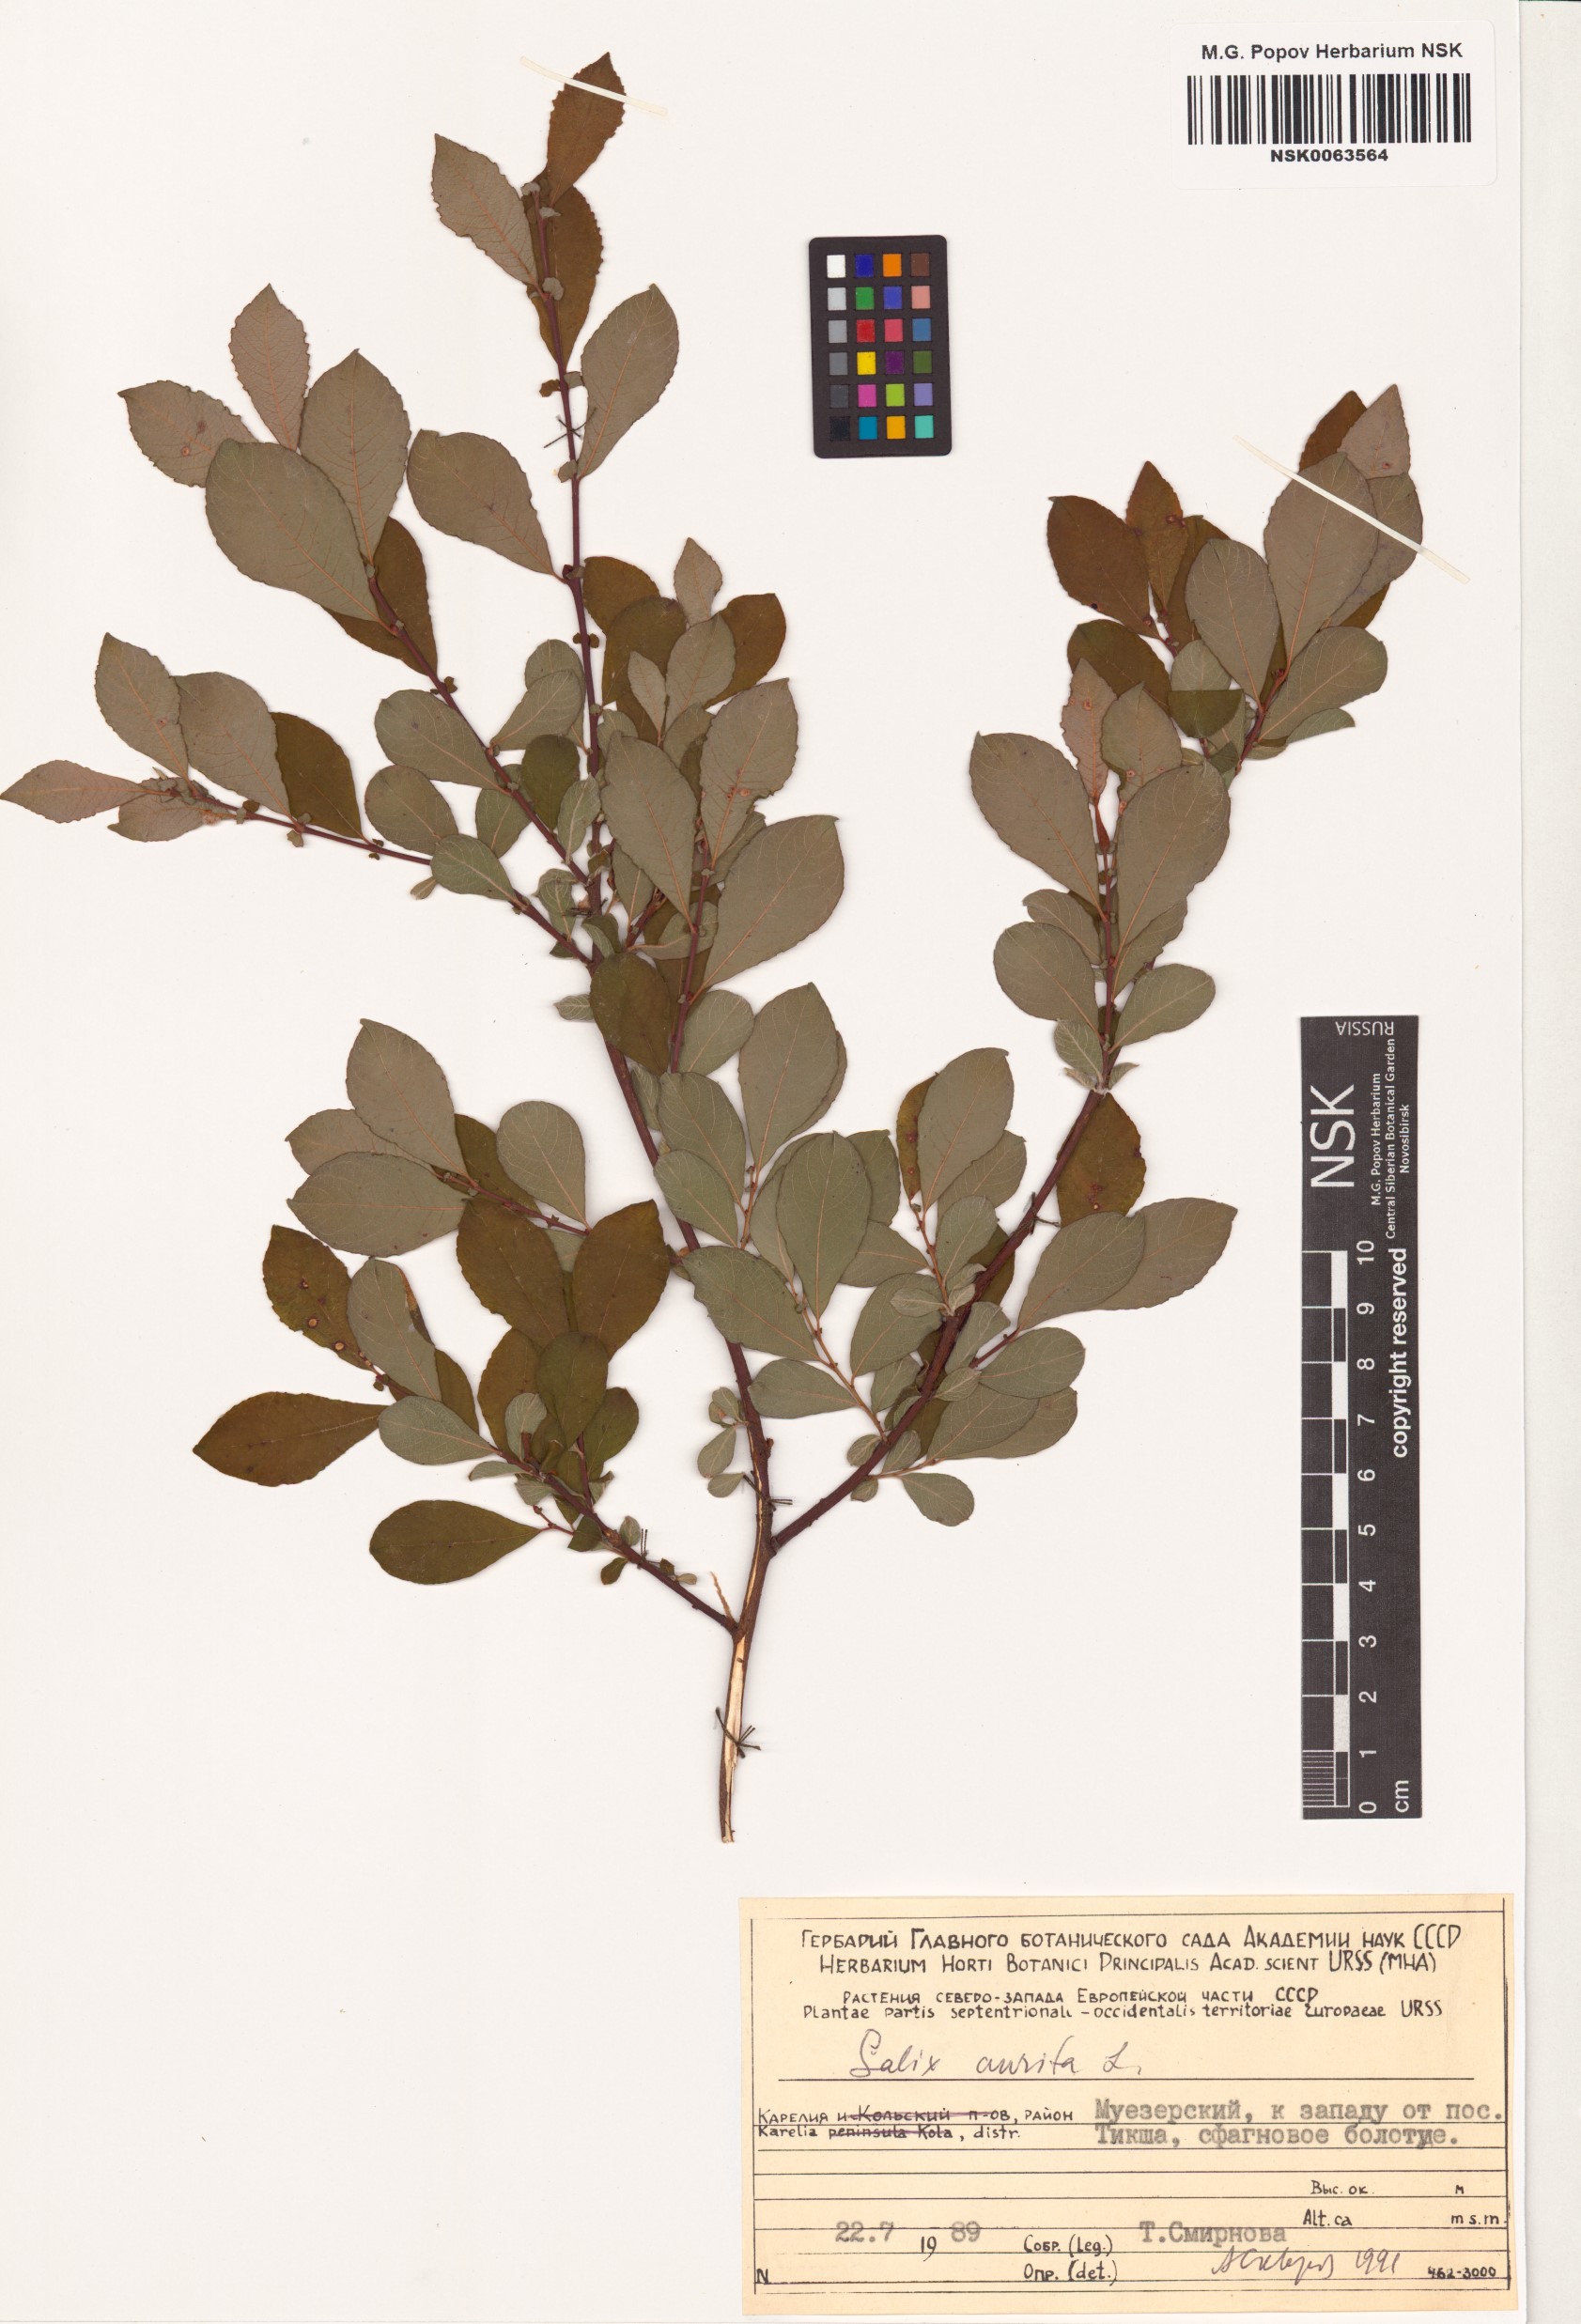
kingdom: Plantae
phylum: Tracheophyta
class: Magnoliopsida
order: Malpighiales
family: Salicaceae
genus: Salix
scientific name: Salix aurita
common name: Eared willow
